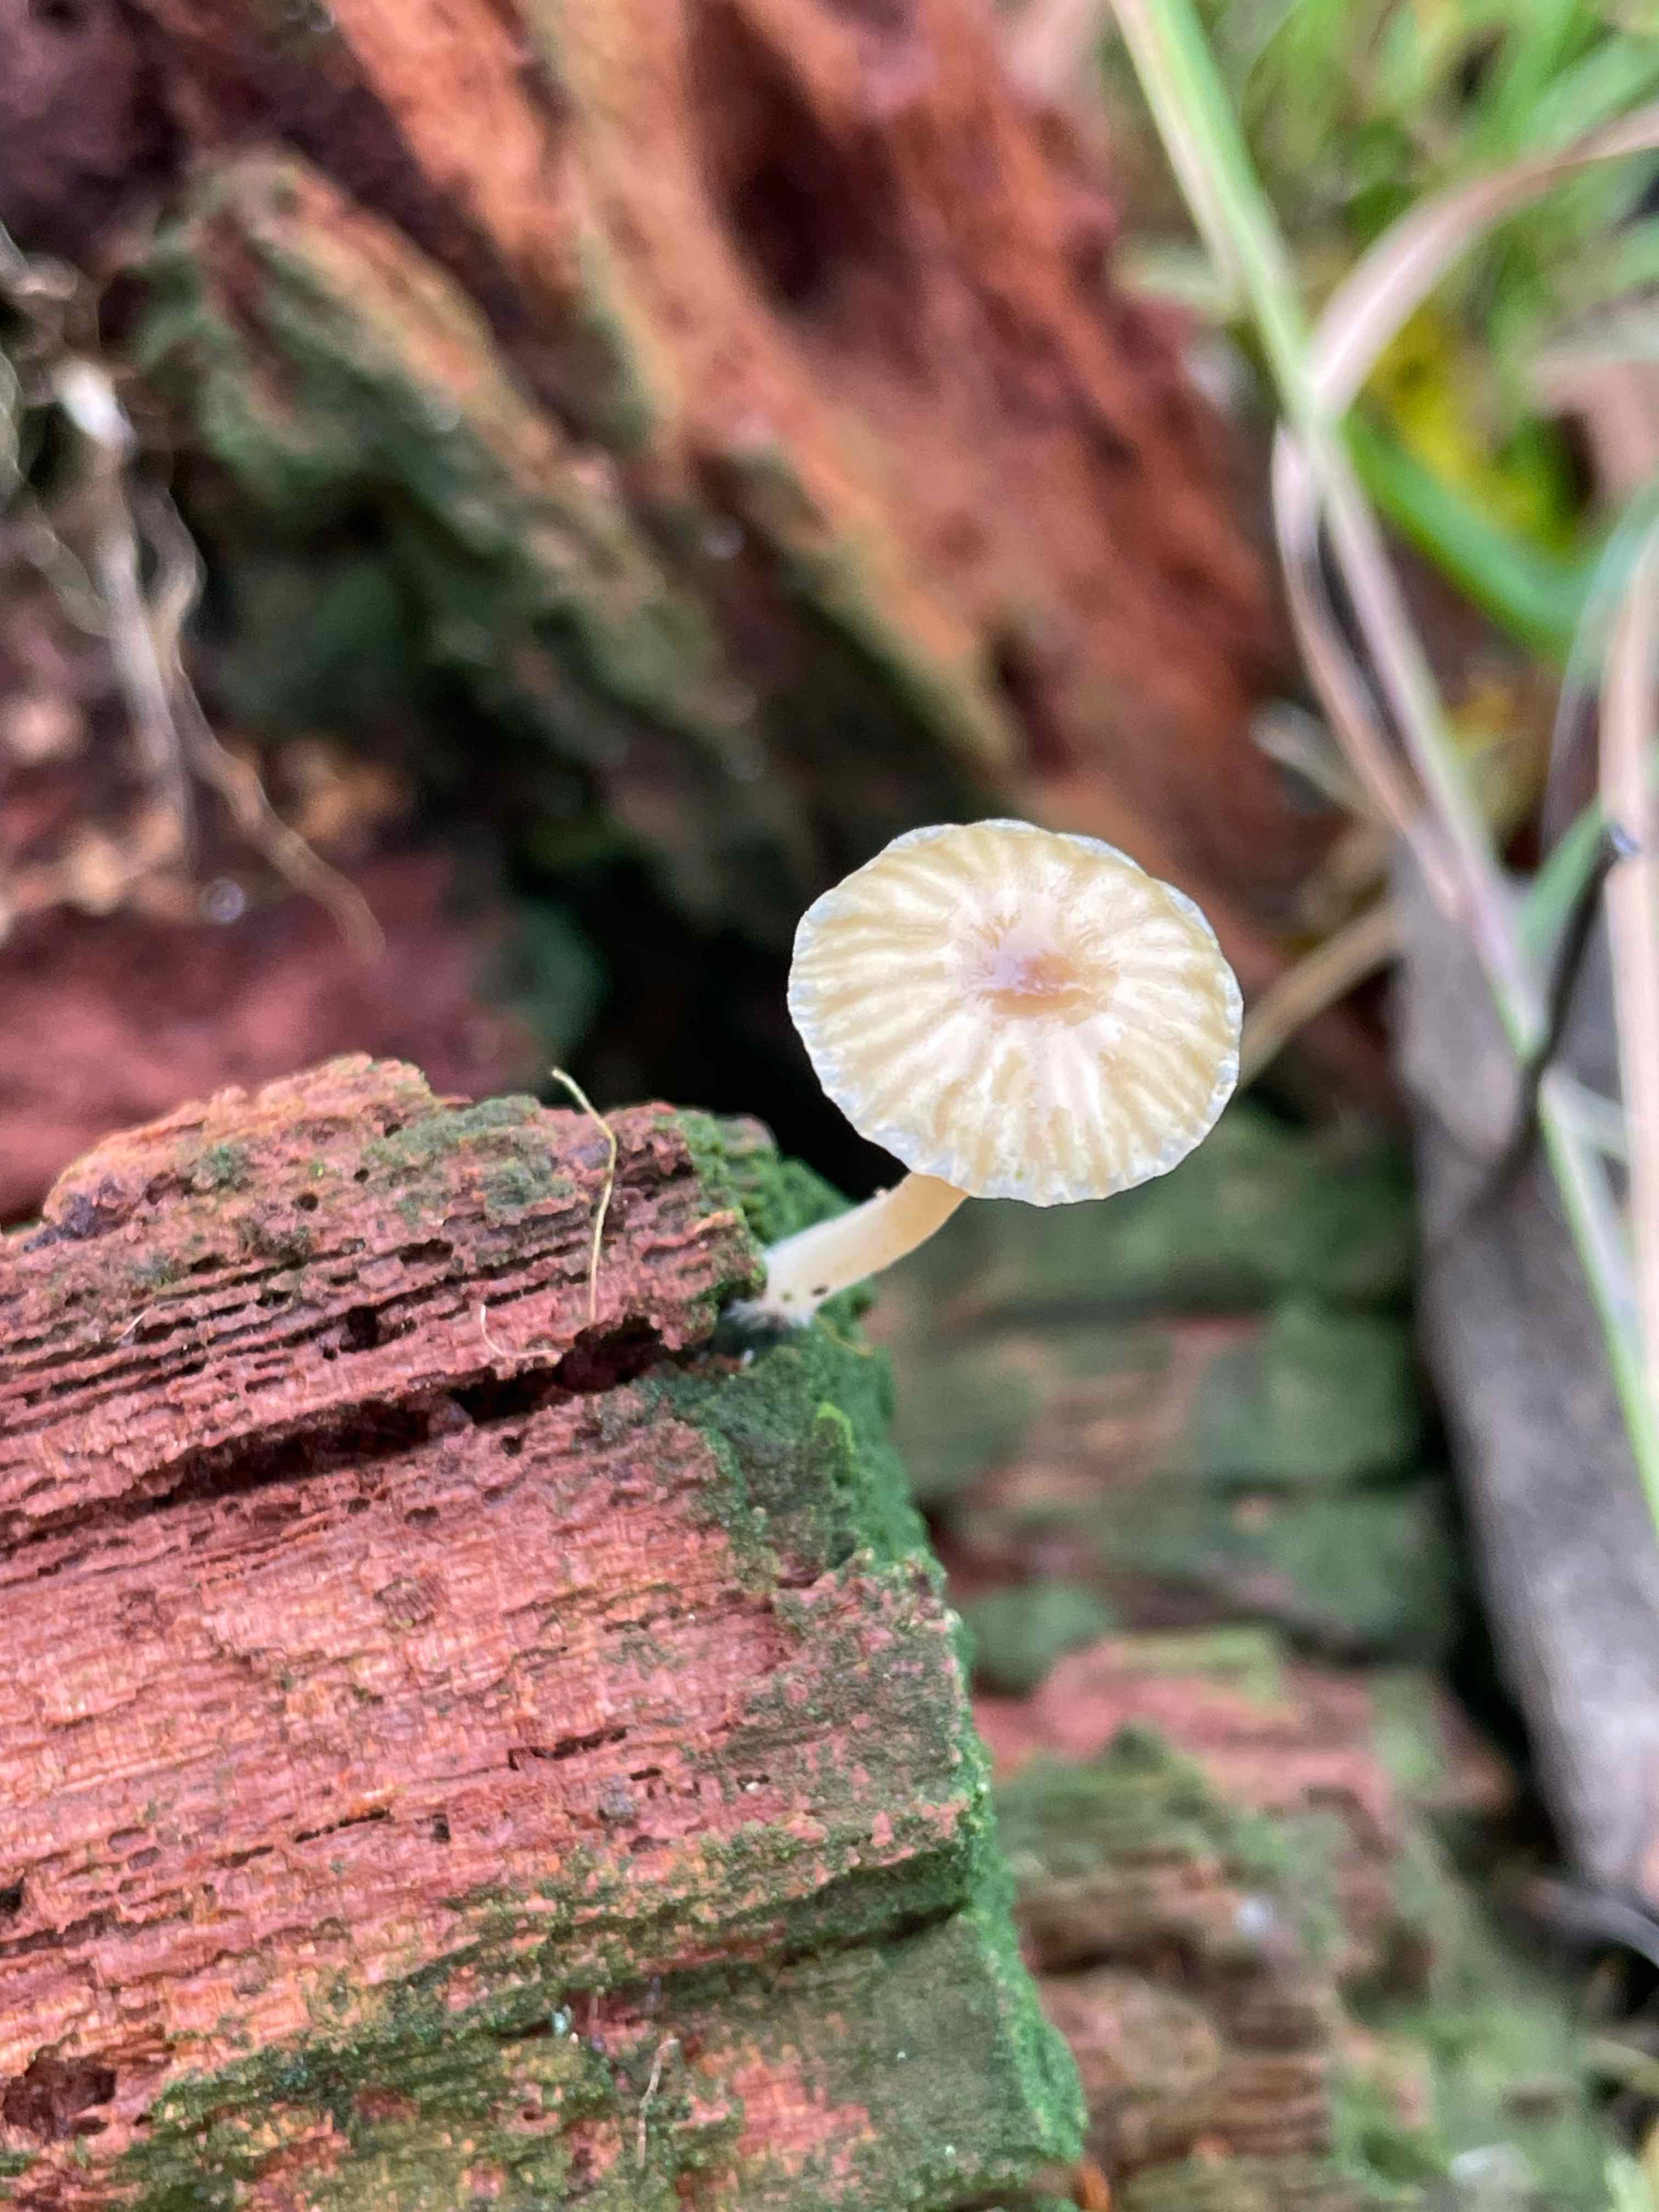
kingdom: Fungi
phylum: Basidiomycota
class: Agaricomycetes
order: Agaricales
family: Hygrophoraceae
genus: Lichenomphalia
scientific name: Lichenomphalia umbellifera
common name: tørve-lavhat
